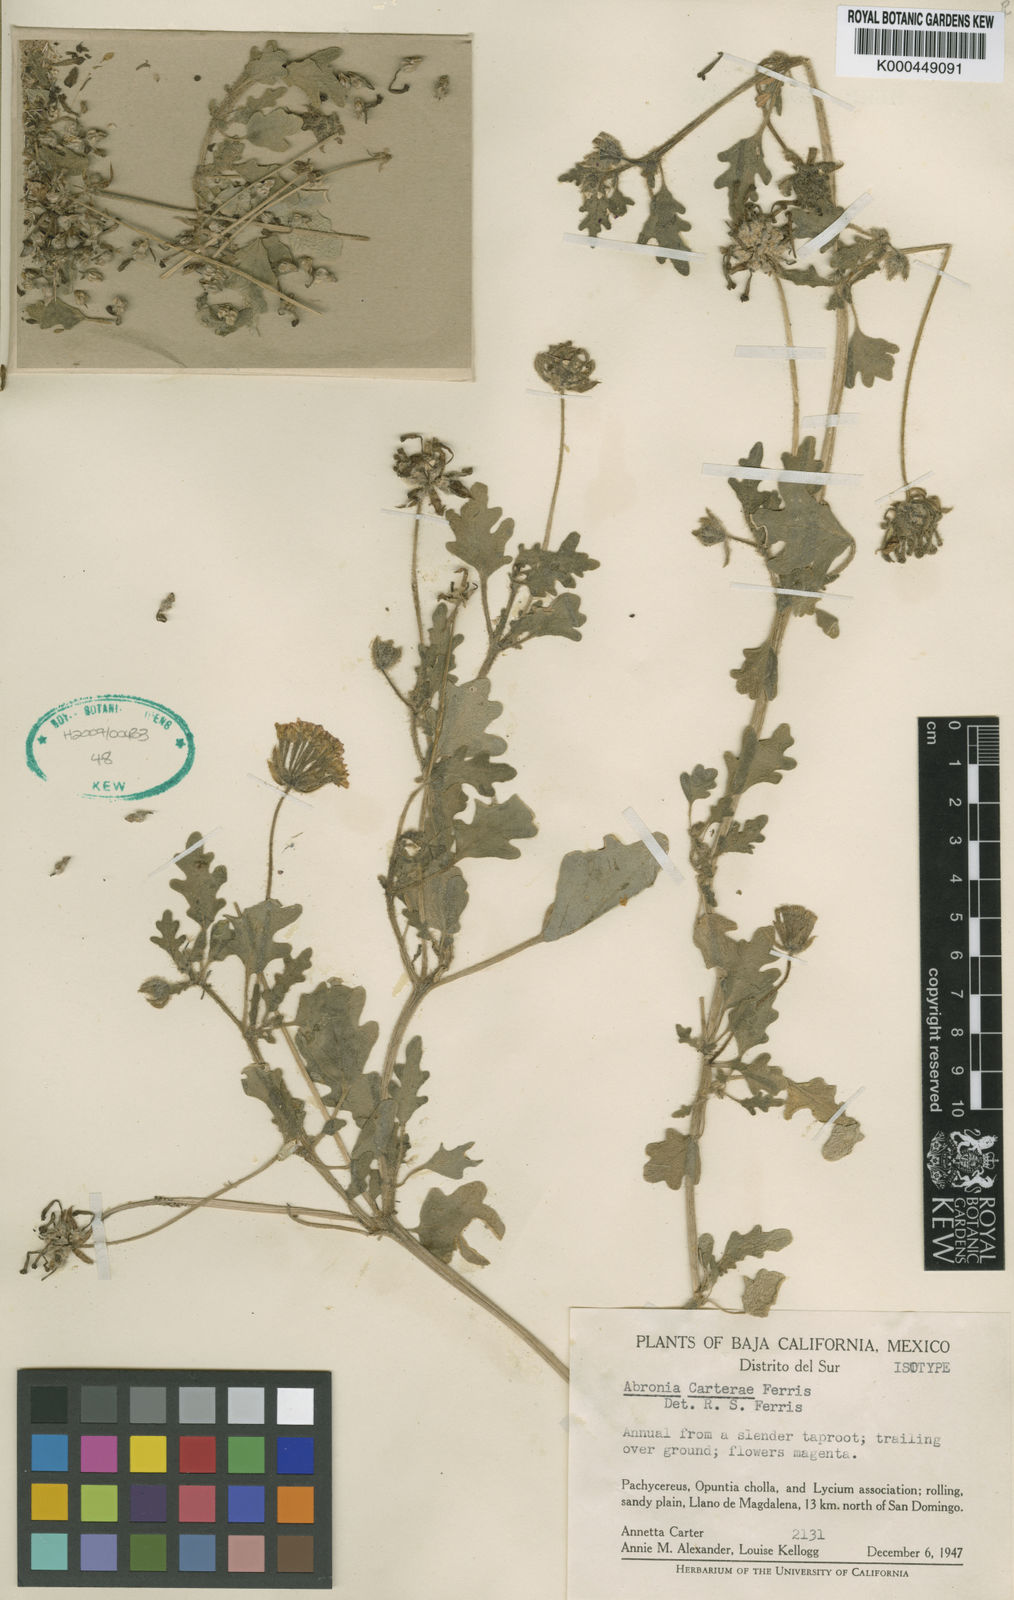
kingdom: Plantae
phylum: Tracheophyta
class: Magnoliopsida
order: Caryophyllales
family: Nyctaginaceae
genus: Abronia
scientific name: Abronia gracilis
